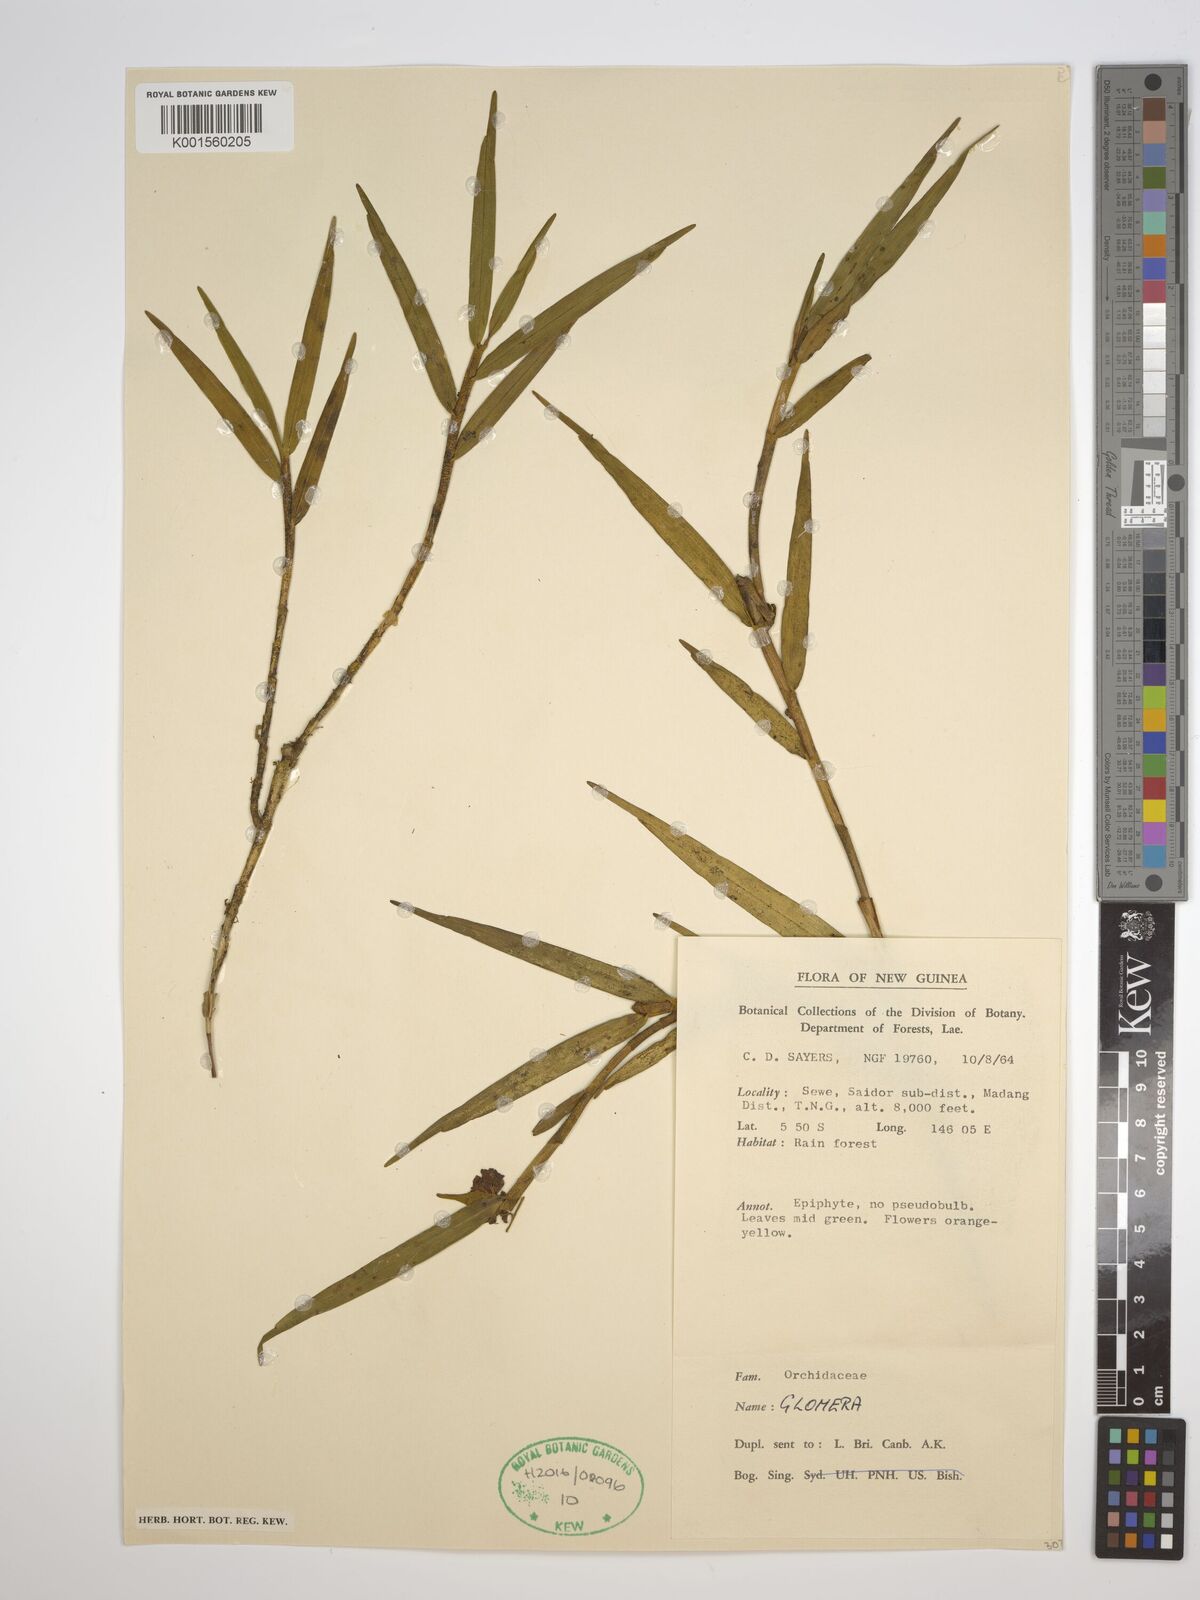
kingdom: Plantae
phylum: Tracheophyta
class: Liliopsida
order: Asparagales
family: Orchidaceae
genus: Glomera
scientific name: Glomera
